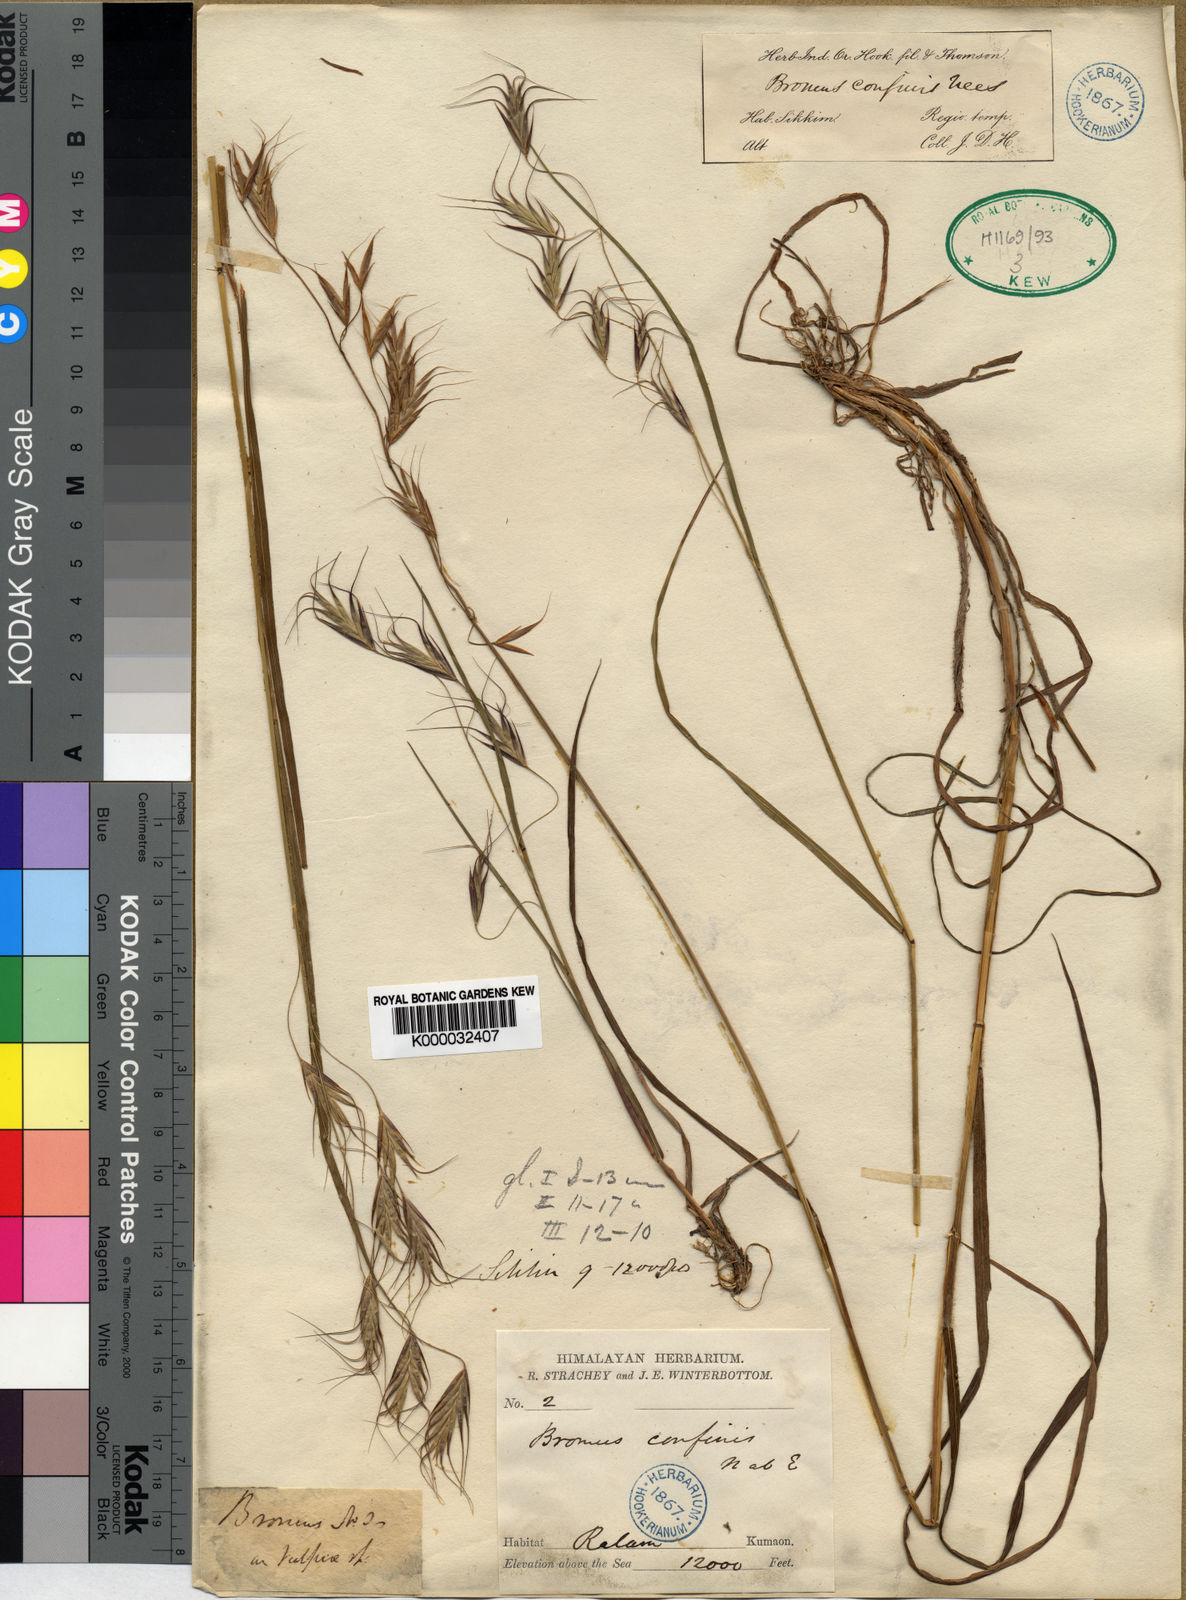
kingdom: Plantae
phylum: Tracheophyta
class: Liliopsida
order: Poales
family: Poaceae
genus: Bromus
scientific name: Bromus porphyranthos
